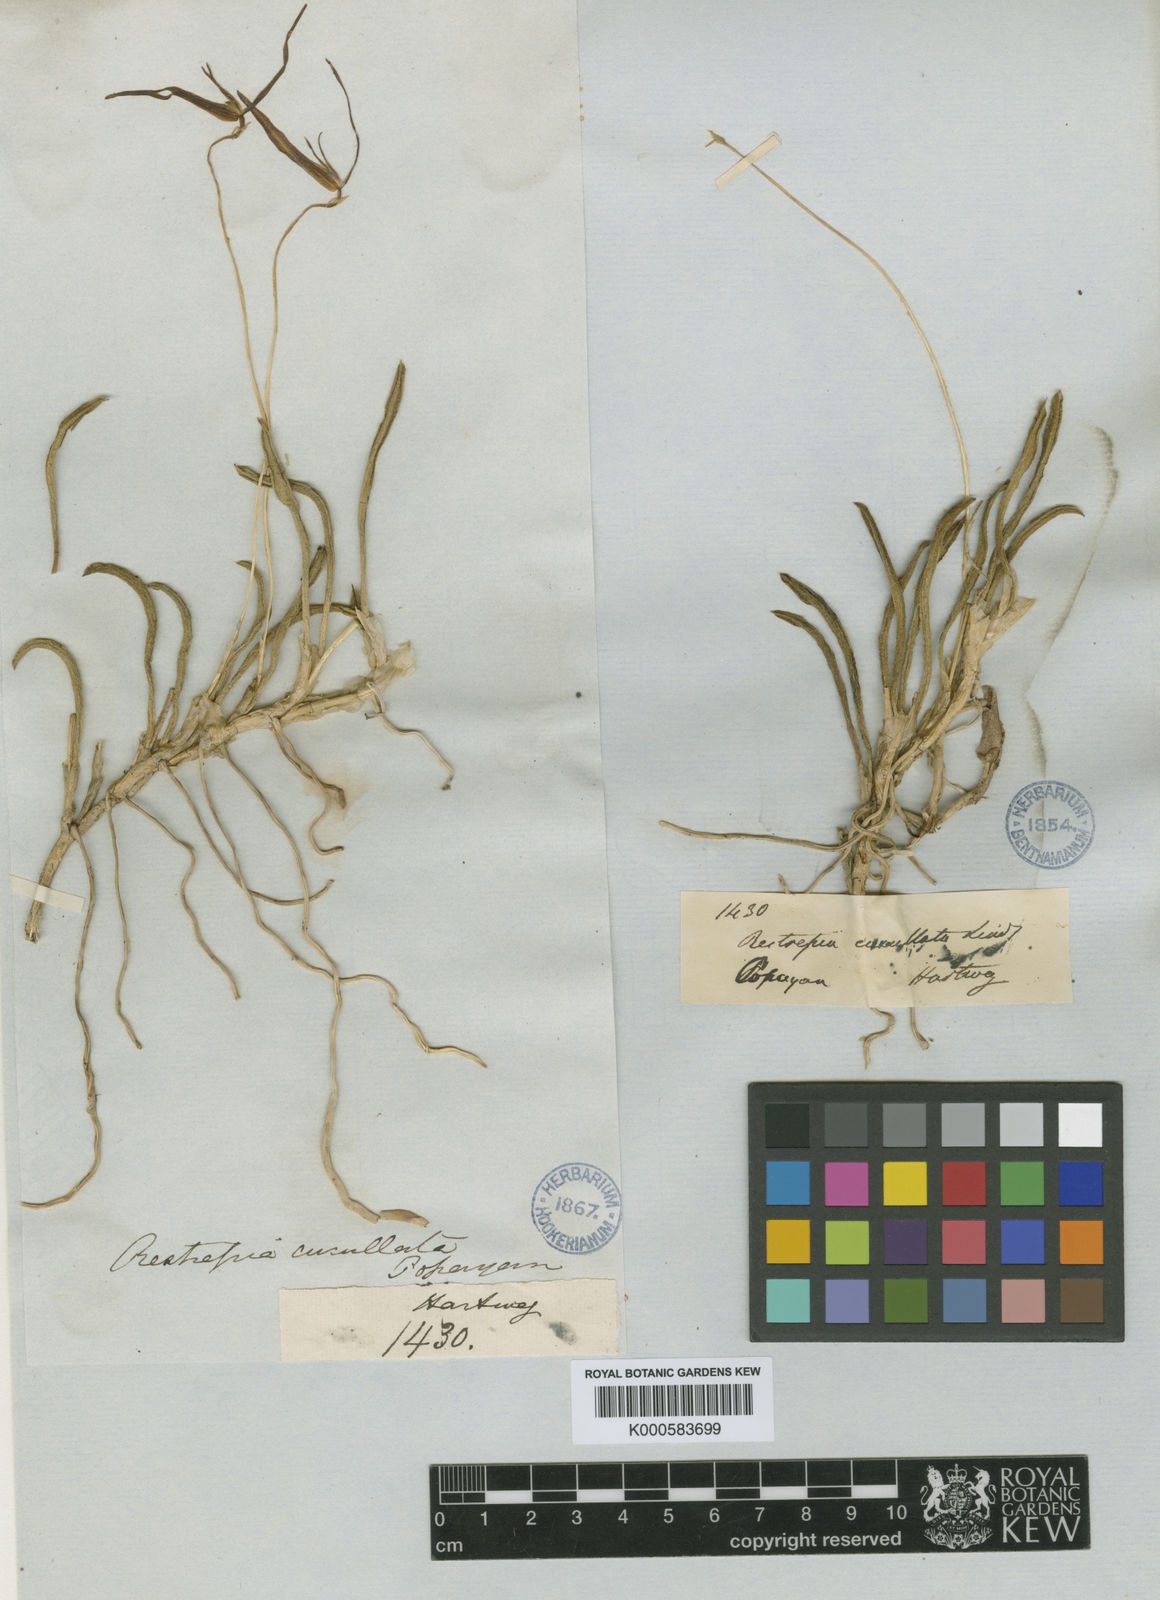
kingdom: Plantae
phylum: Tracheophyta
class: Liliopsida
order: Asparagales
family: Orchidaceae
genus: Barbosella
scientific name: Barbosella cucullata
